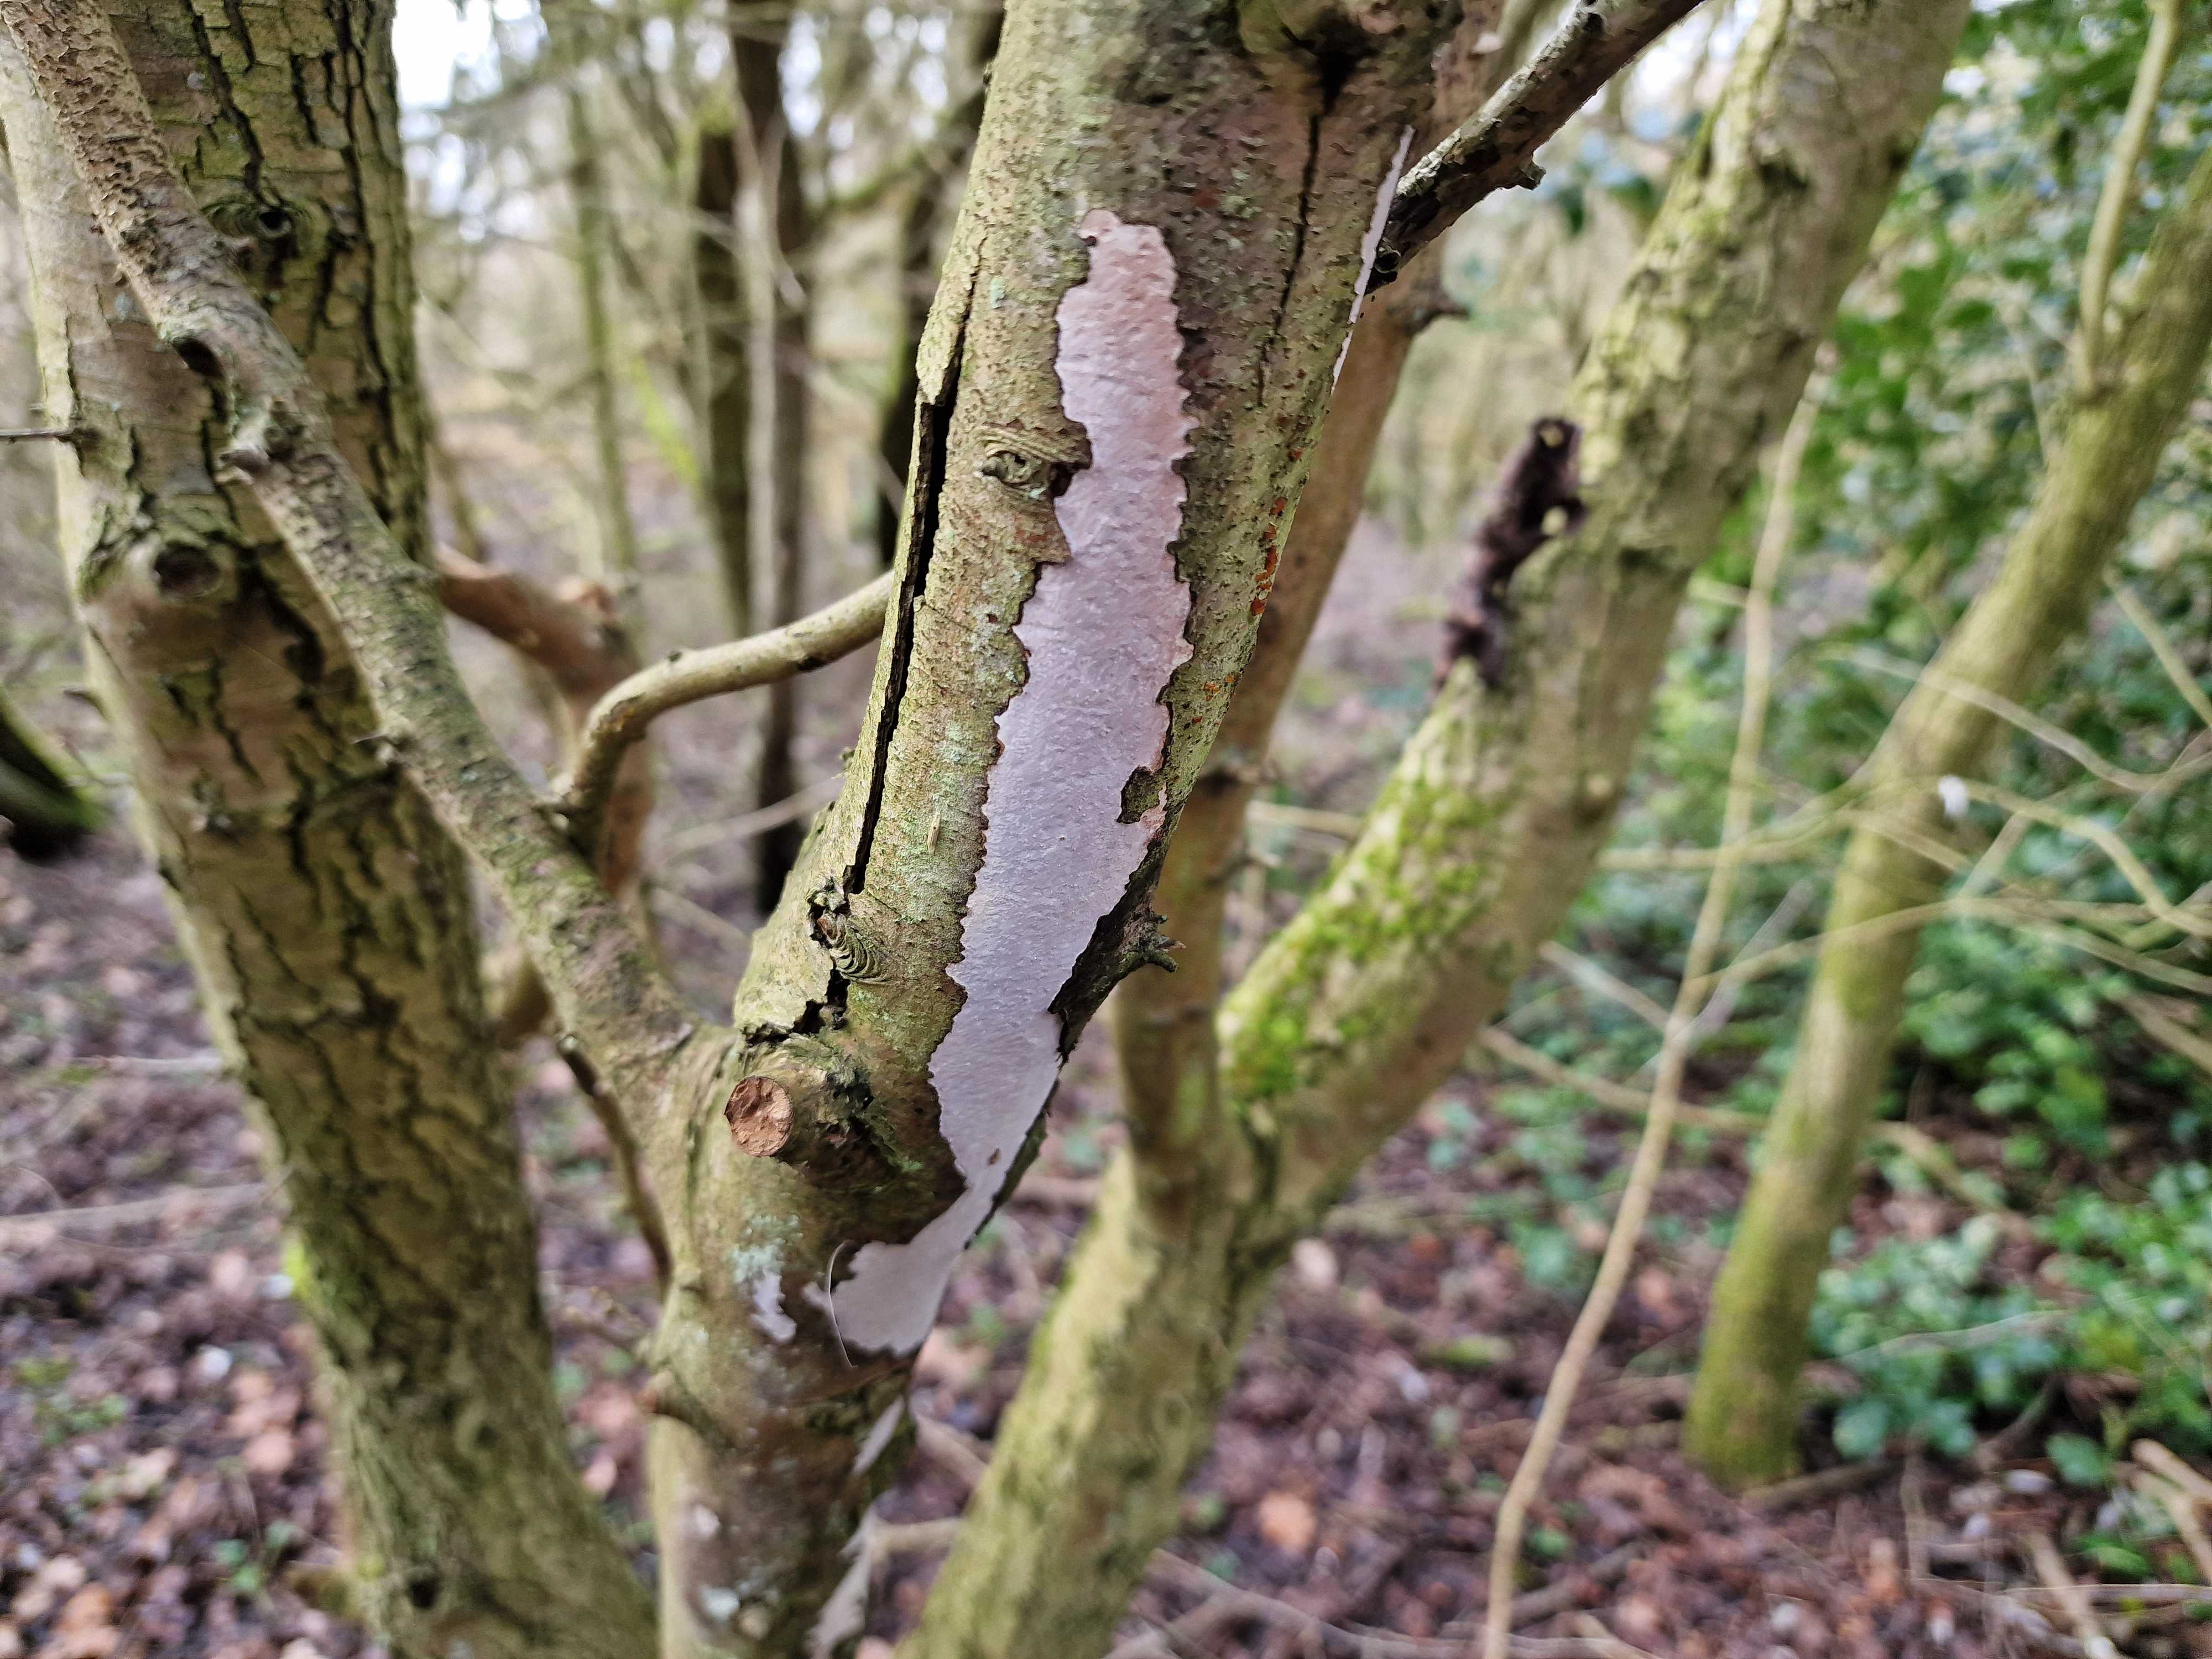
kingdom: Fungi
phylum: Basidiomycota
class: Agaricomycetes
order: Corticiales
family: Vuilleminiaceae
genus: Vuilleminia
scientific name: Vuilleminia cystidiata
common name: tjørne-barksprænger
